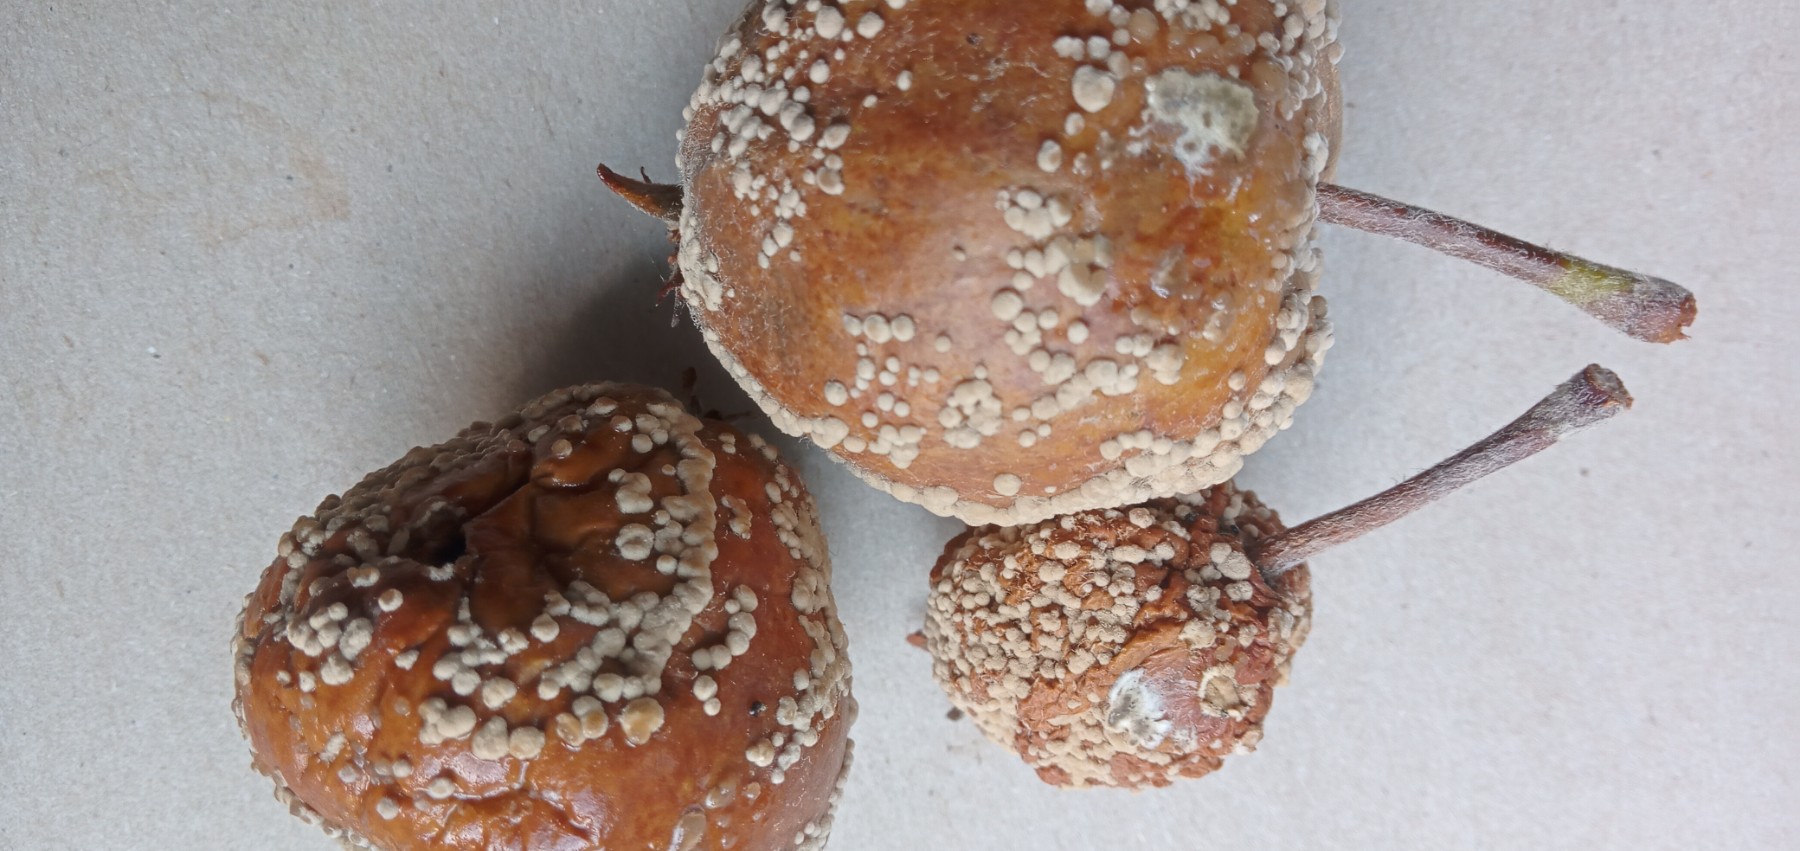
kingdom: Fungi
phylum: Ascomycota
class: Leotiomycetes
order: Helotiales
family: Sclerotiniaceae
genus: Monilinia
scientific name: Monilinia fructigena
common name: æble-knoldskive
